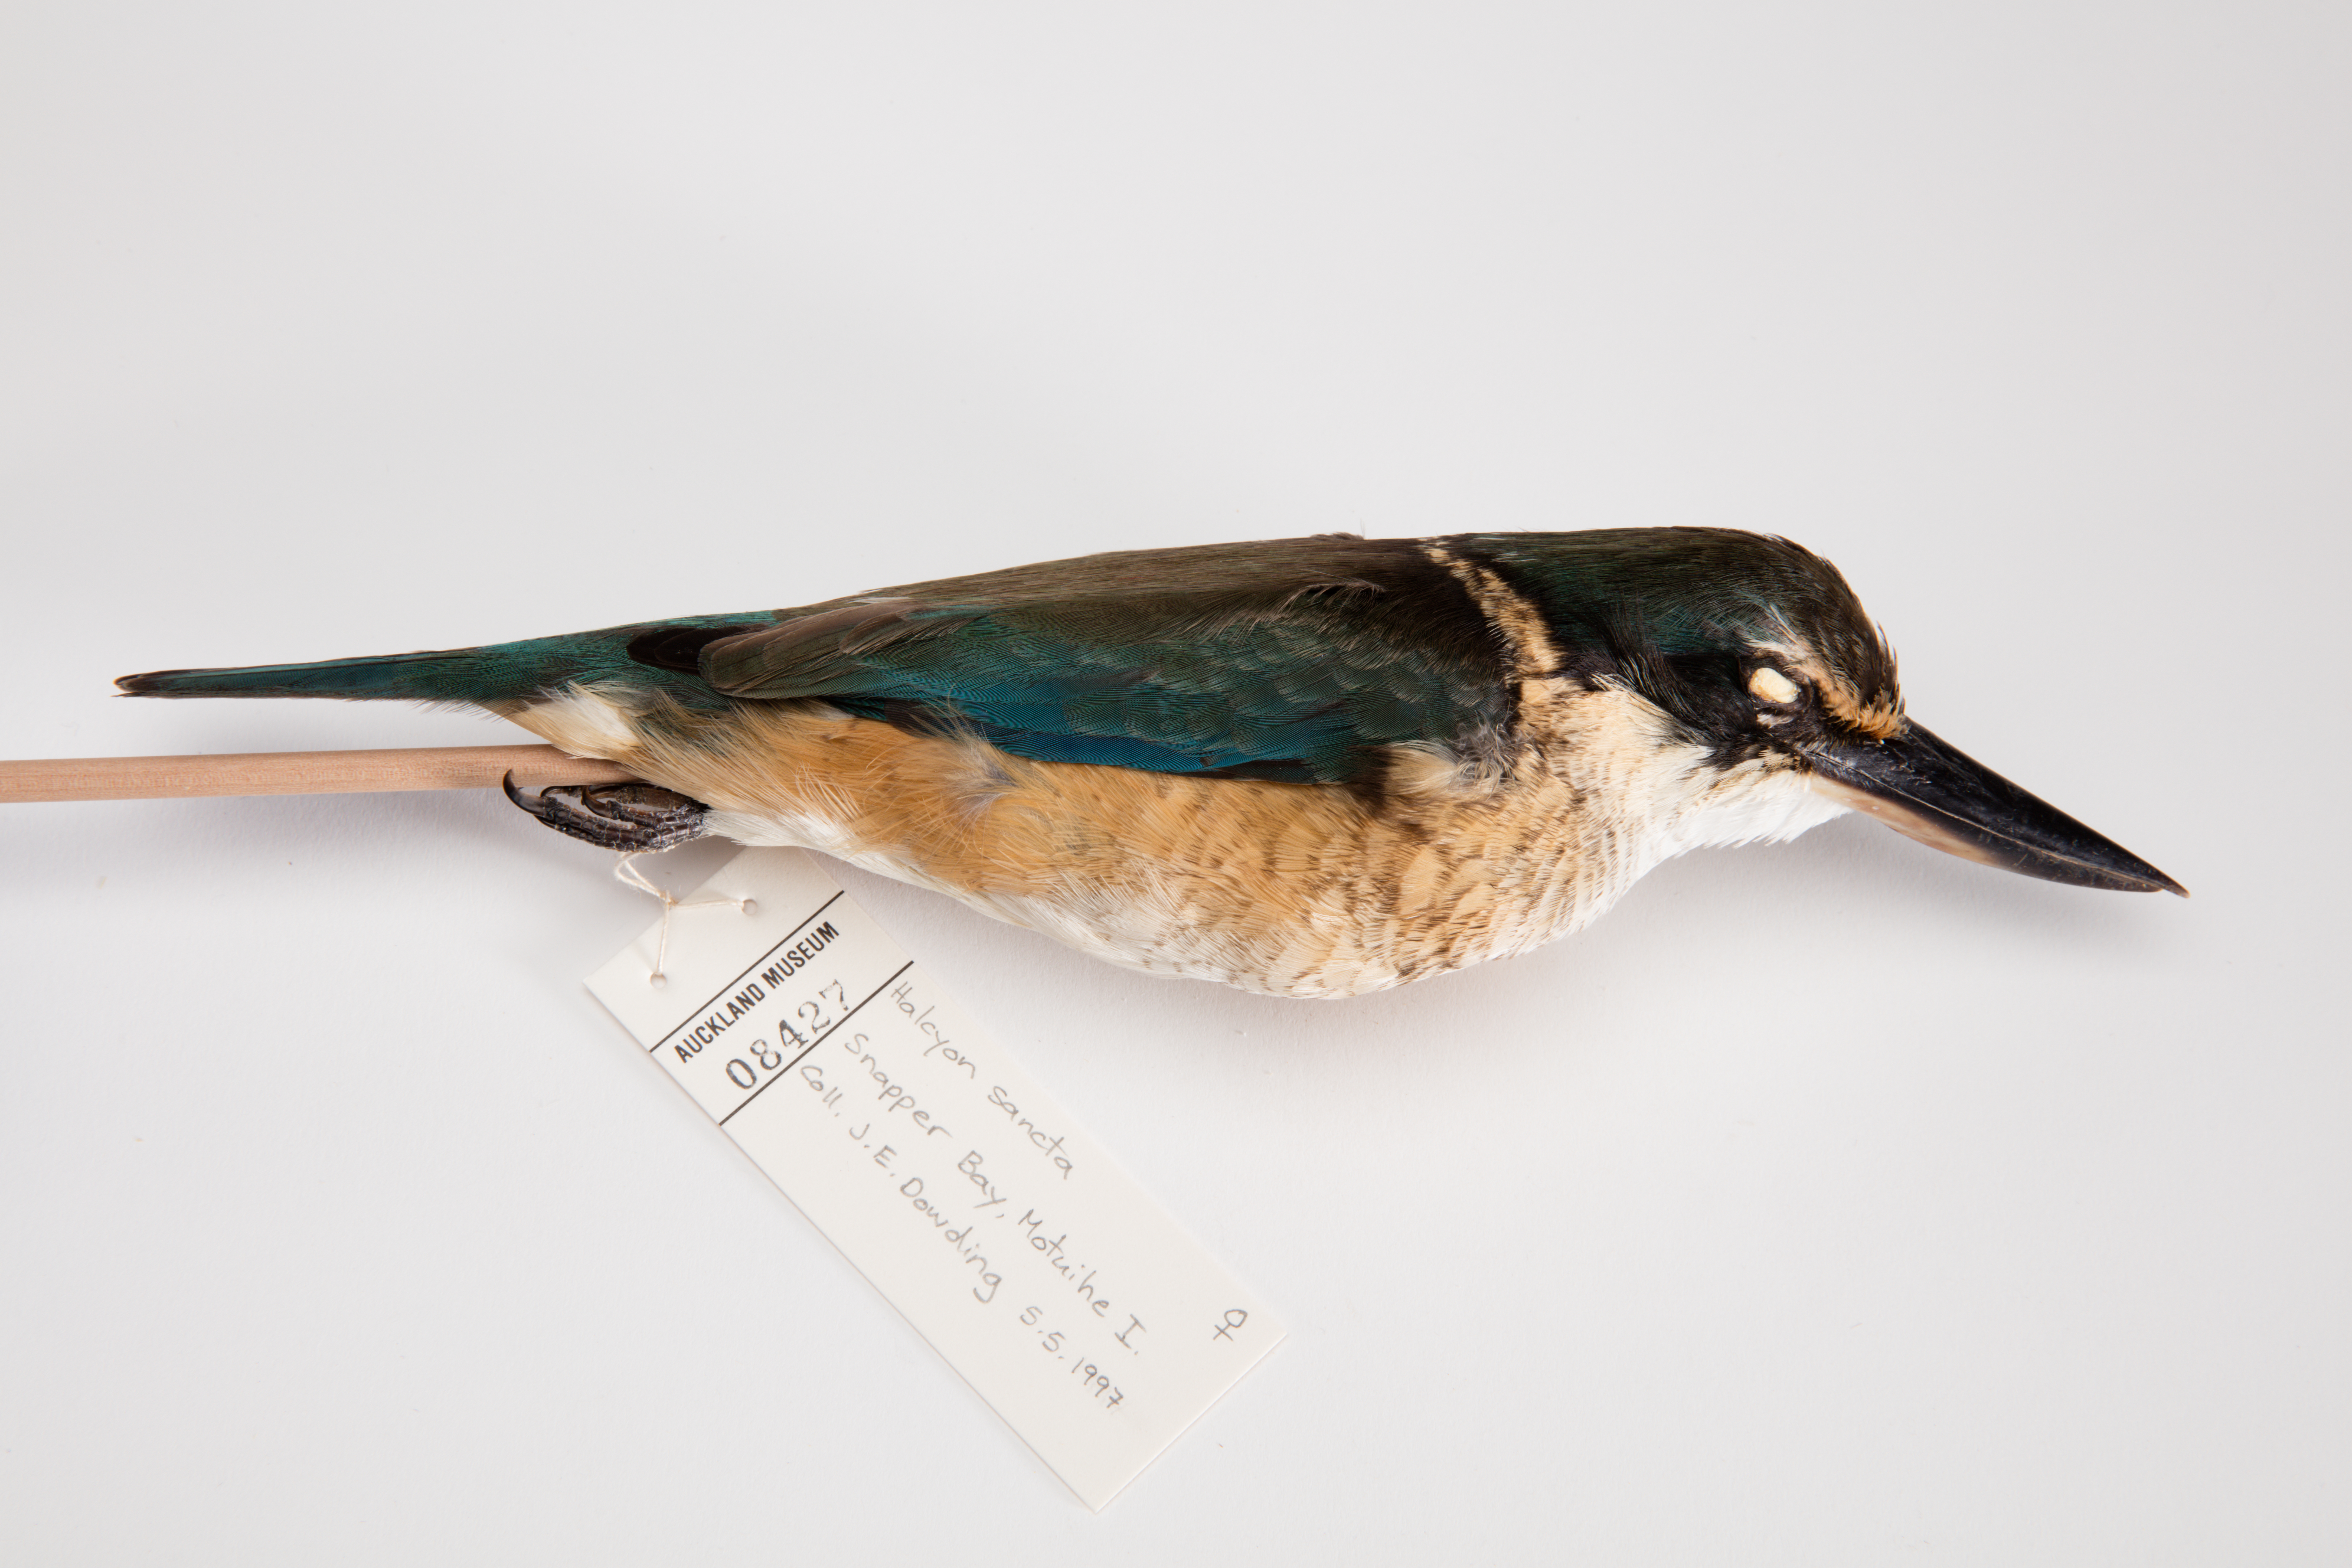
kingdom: Animalia
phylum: Chordata
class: Aves
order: Coraciiformes
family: Alcedinidae
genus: Todiramphus
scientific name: Todiramphus sanctus
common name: Sacred kingfisher
